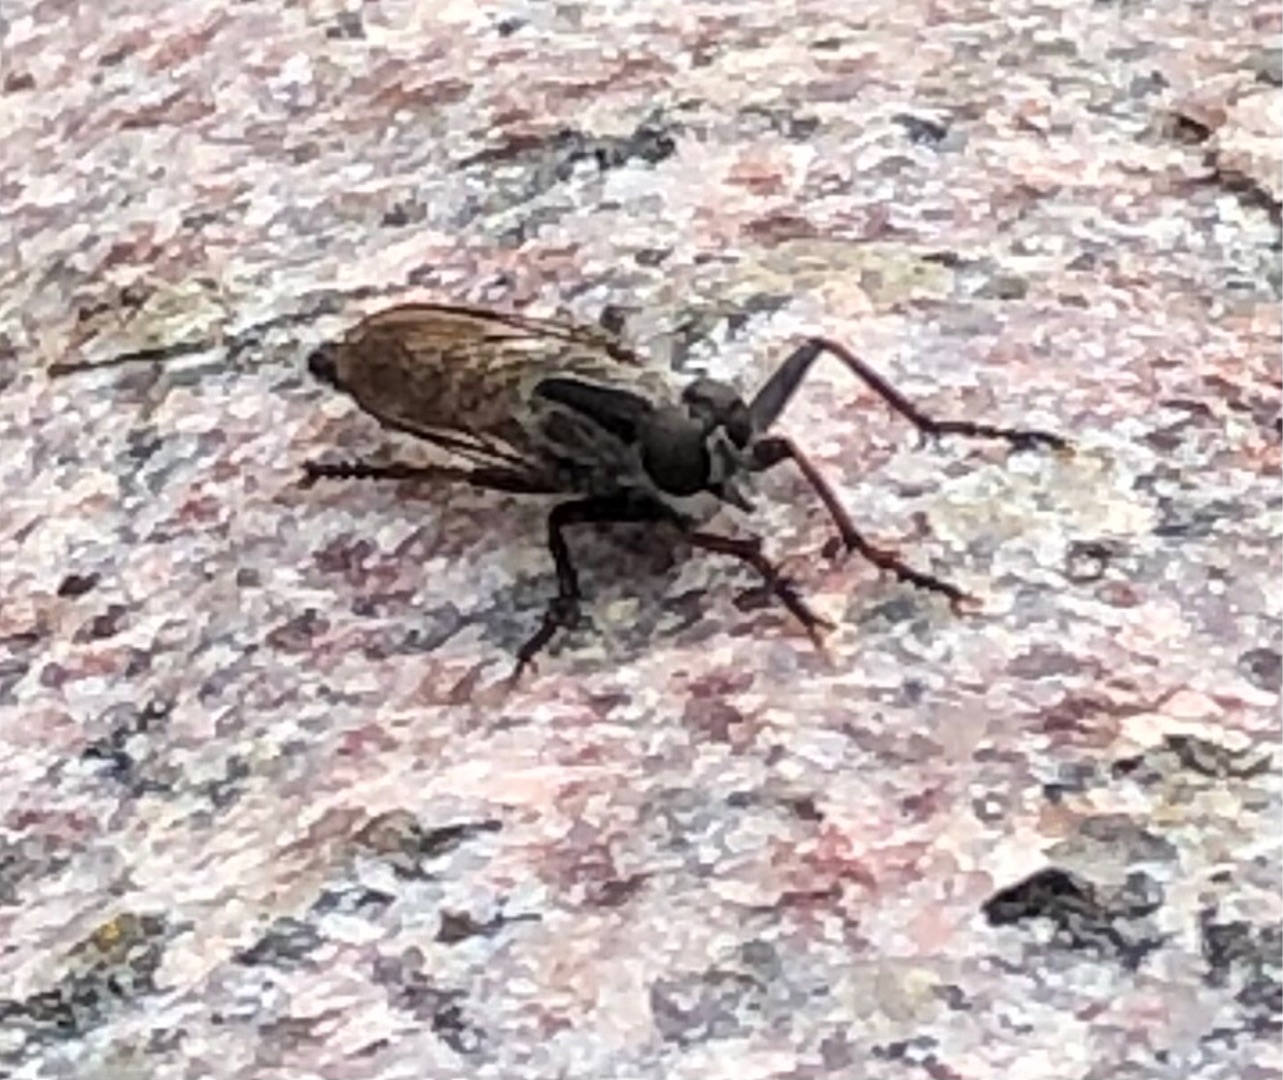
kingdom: Animalia
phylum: Arthropoda
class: Insecta
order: Diptera
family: Asilidae
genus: Machimus
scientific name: Machimus atricapillus
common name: Sort hårrovflue
